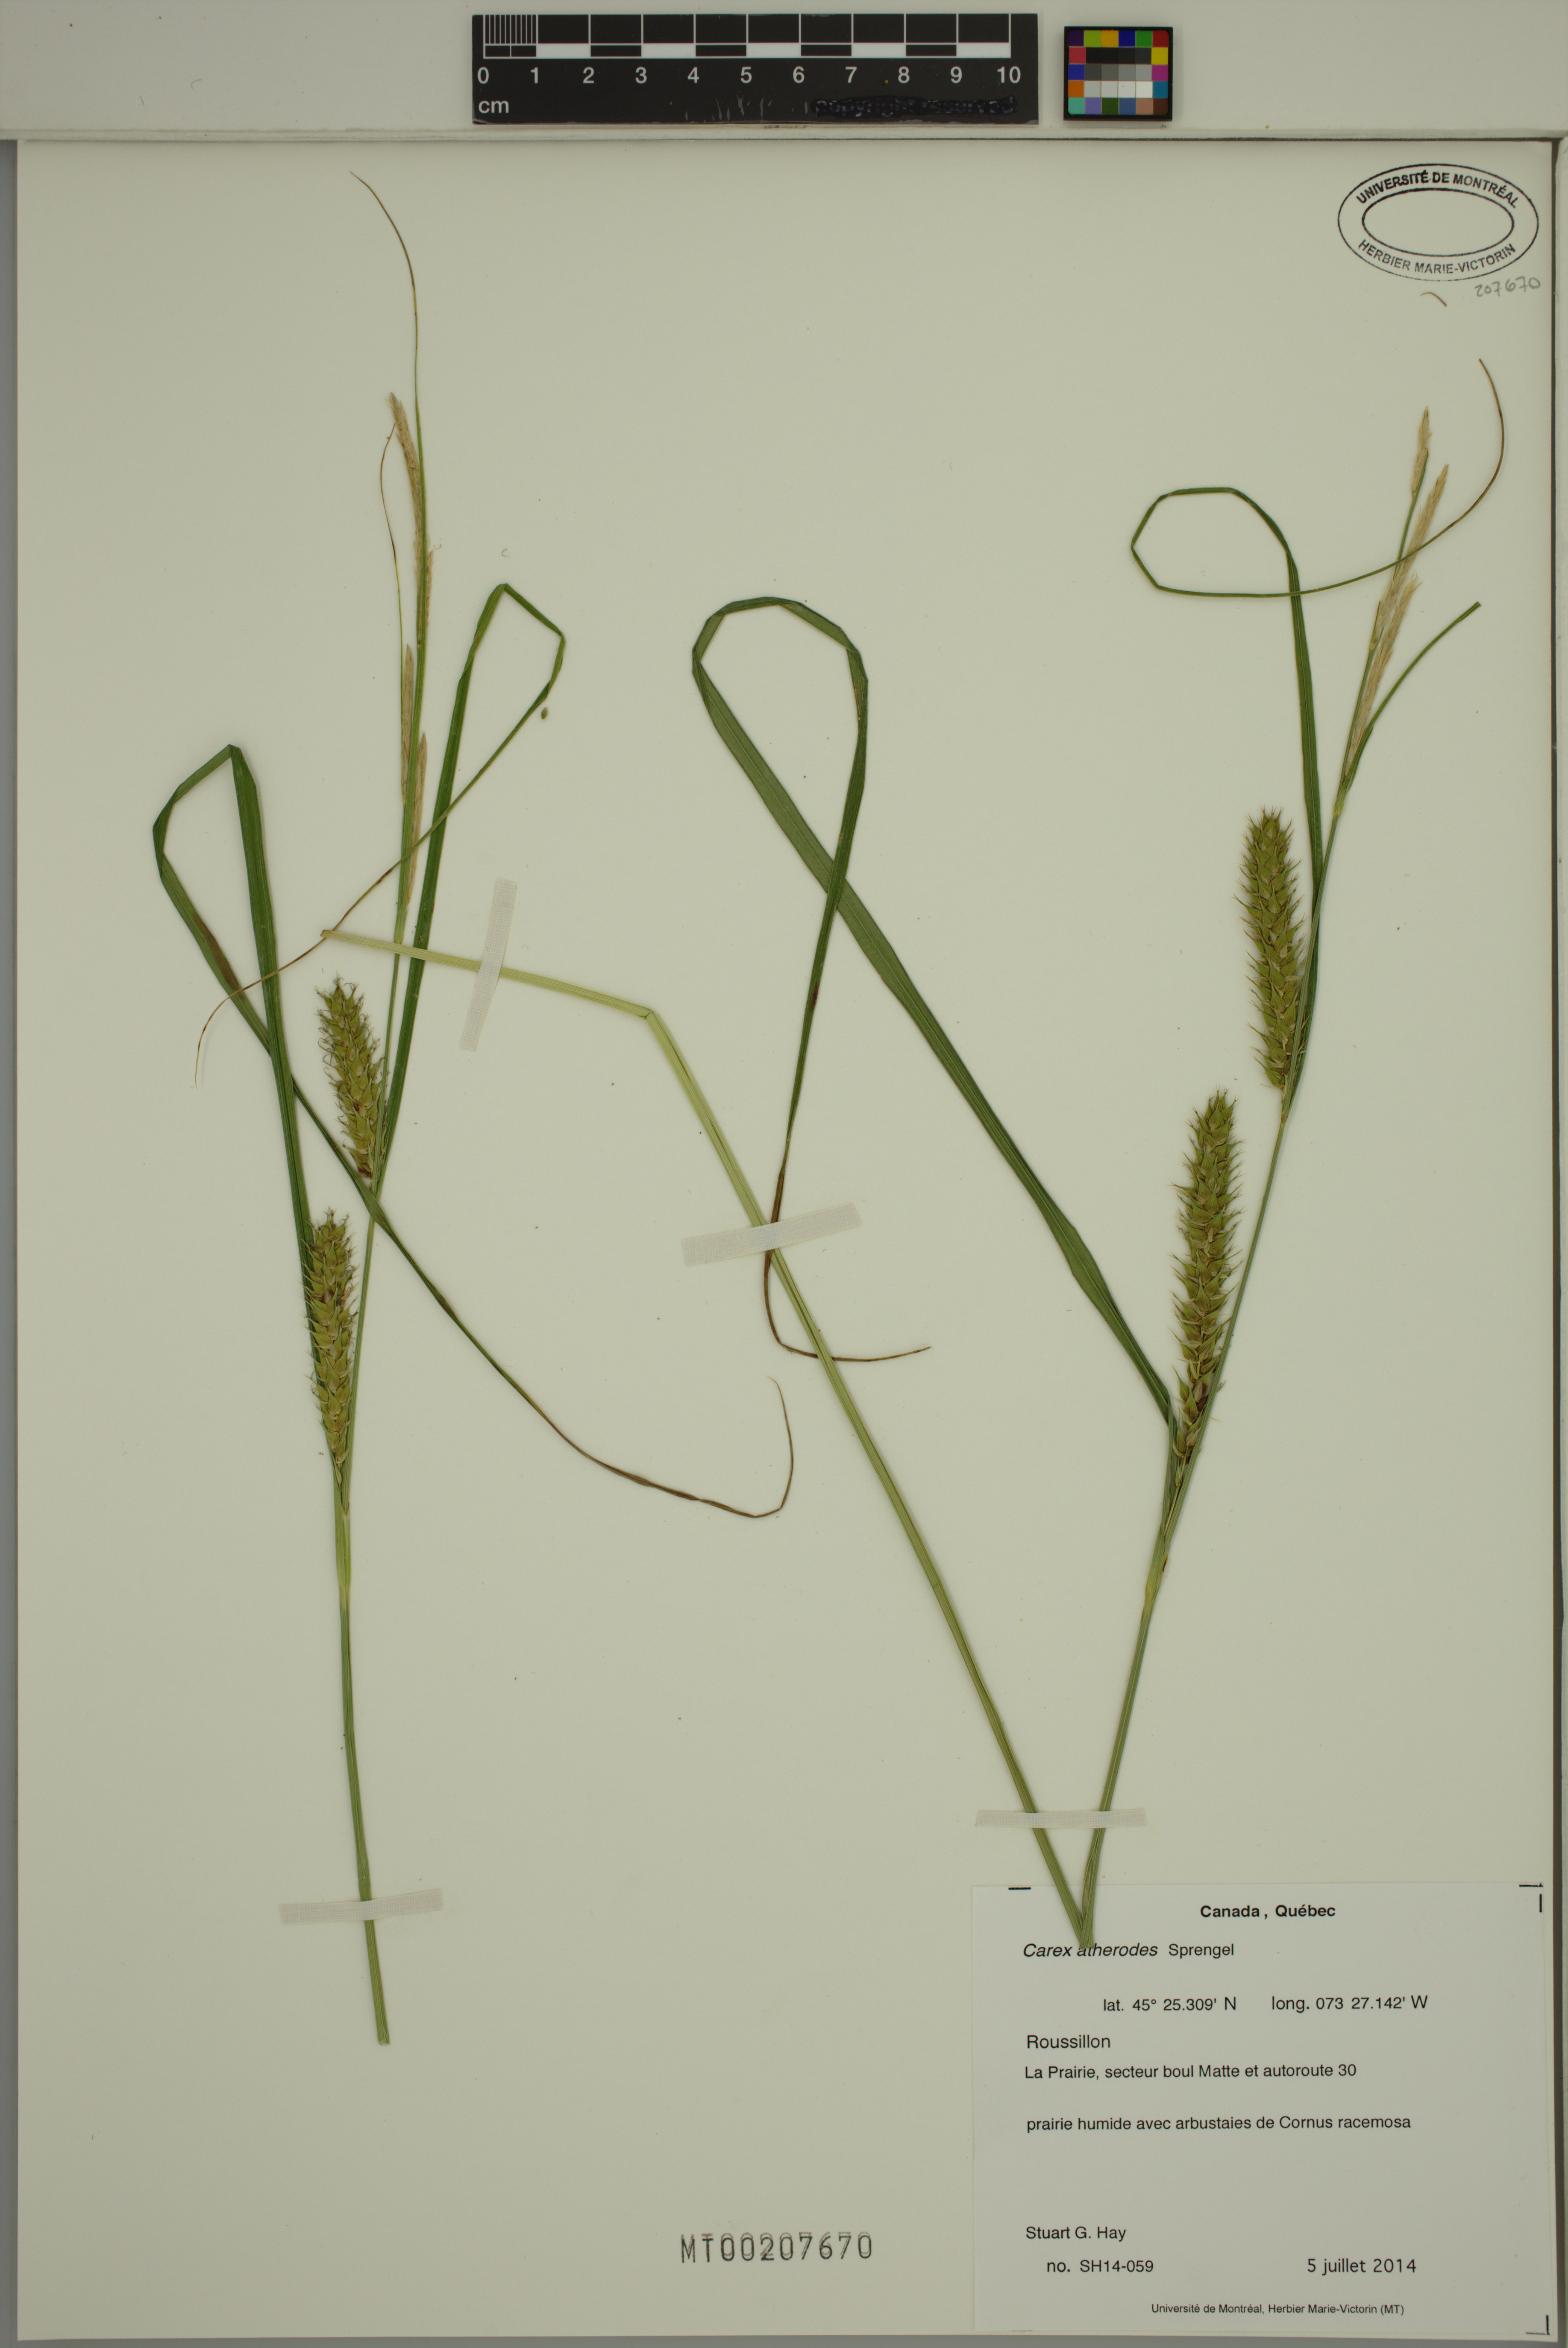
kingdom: Plantae
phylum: Tracheophyta
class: Liliopsida
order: Poales
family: Cyperaceae
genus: Carex
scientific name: Carex atherodes
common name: Wheat sedge
